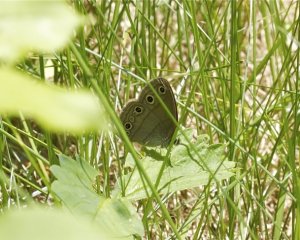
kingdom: Animalia
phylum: Arthropoda
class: Insecta
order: Lepidoptera
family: Nymphalidae
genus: Euptychia
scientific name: Euptychia cymela
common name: Little Wood Satyr
